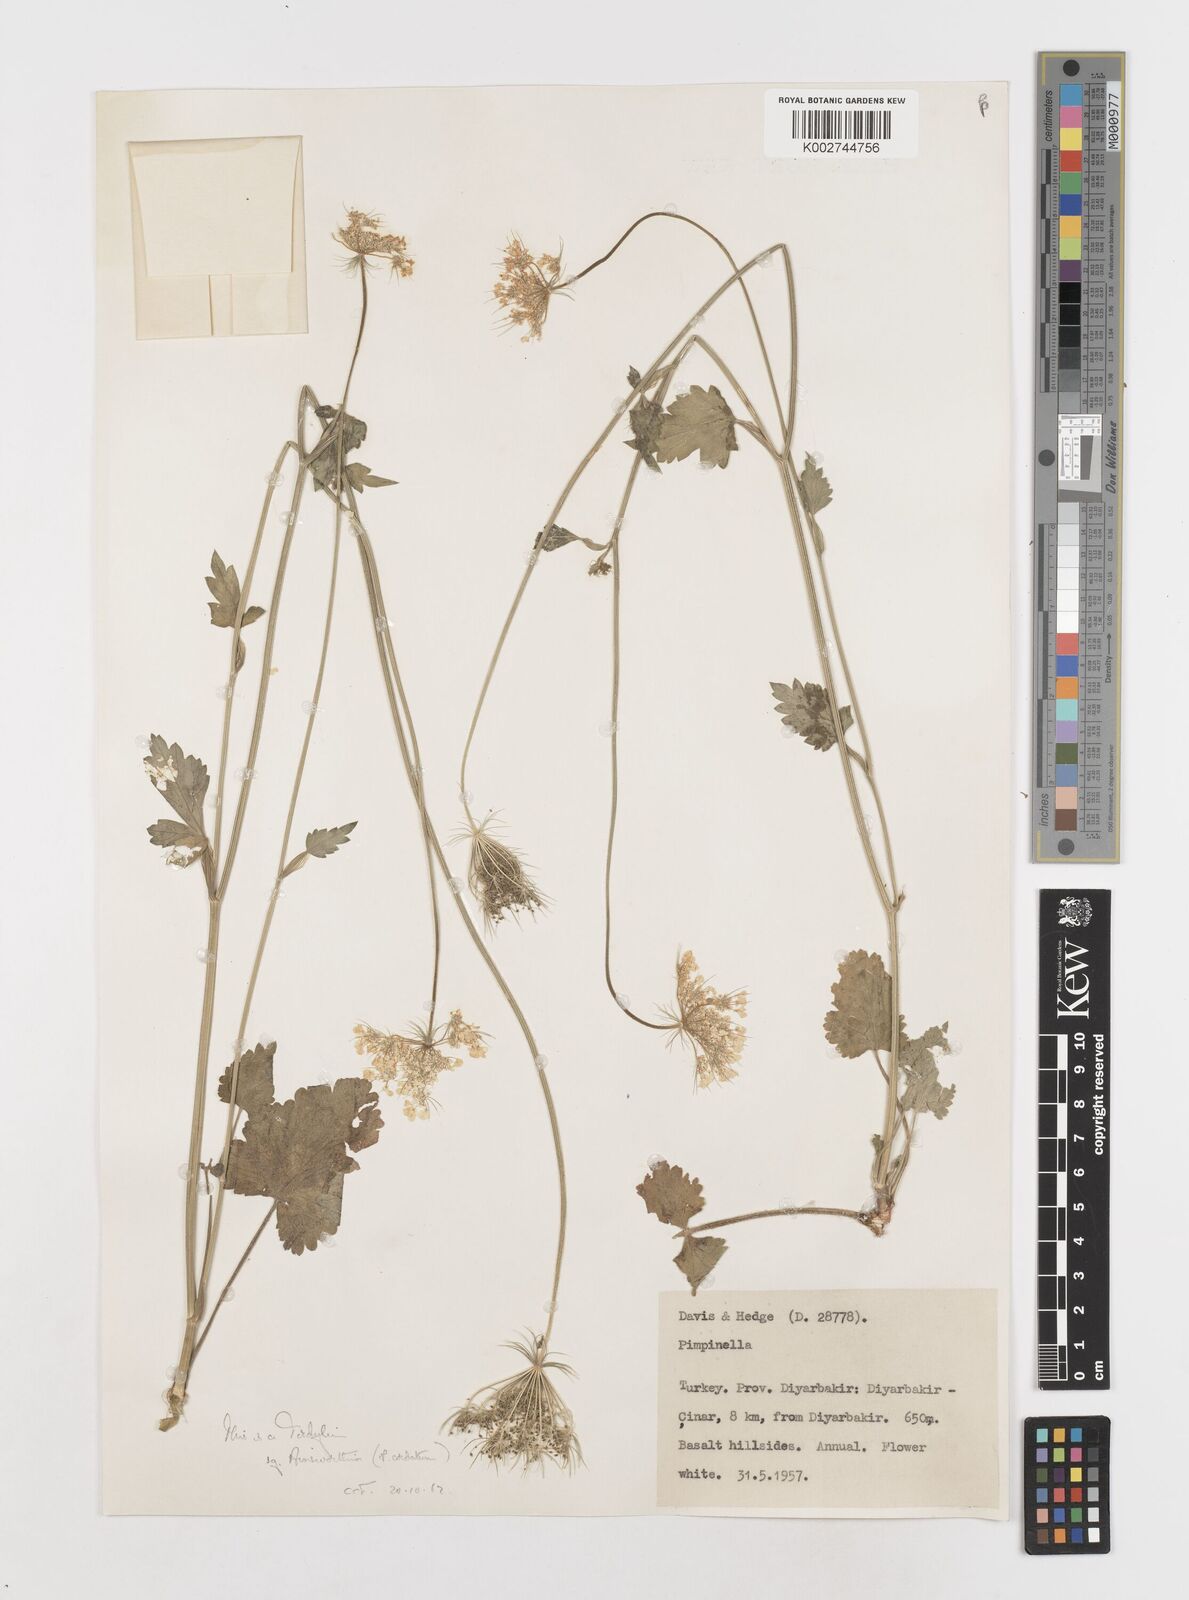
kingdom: Plantae
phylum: Tracheophyta
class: Magnoliopsida
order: Apiales
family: Apiaceae
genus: Ainsworthia
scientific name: Ainsworthia cordata
